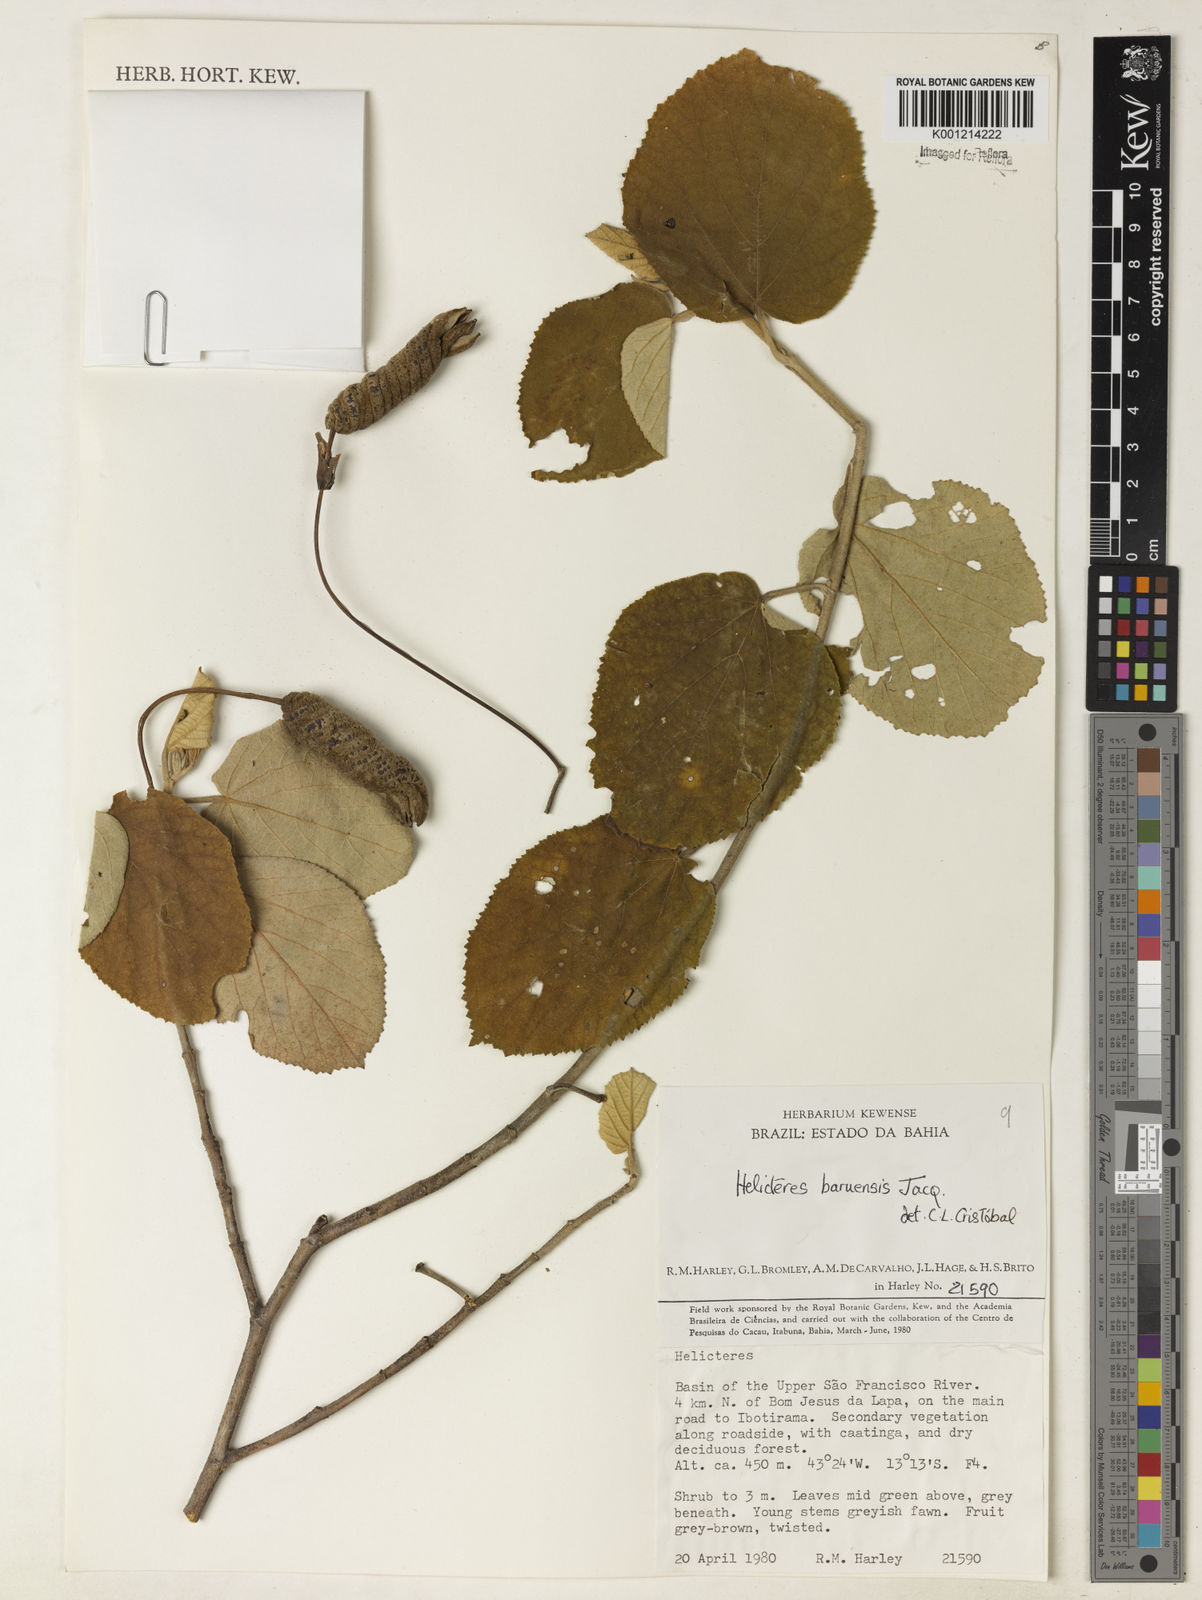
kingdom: Plantae
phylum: Tracheophyta
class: Magnoliopsida
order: Malvales
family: Malvaceae
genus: Helicteres
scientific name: Helicteres baruensis
